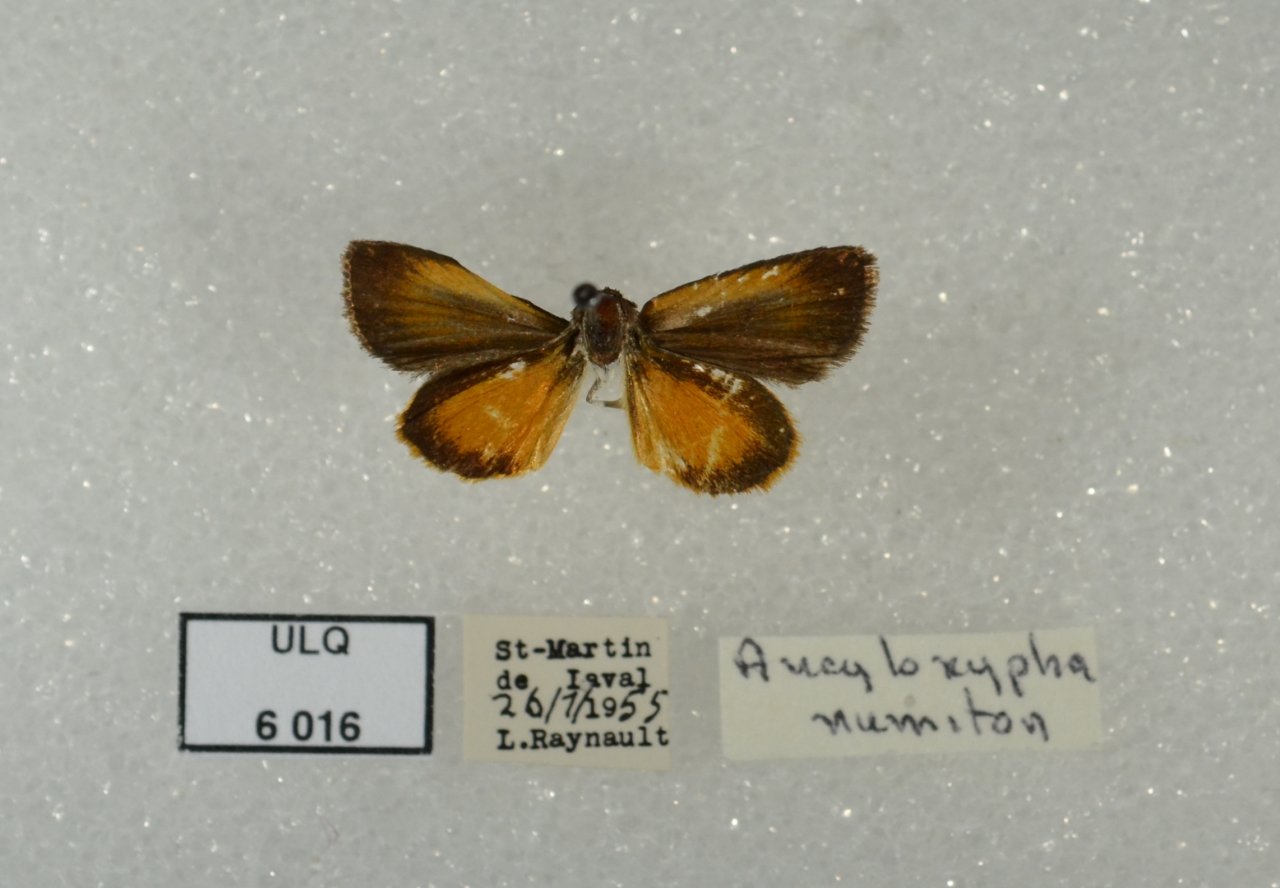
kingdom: Animalia
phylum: Arthropoda
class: Insecta
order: Lepidoptera
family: Hesperiidae
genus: Ancyloxypha
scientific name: Ancyloxypha numitor
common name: Least Skipper
